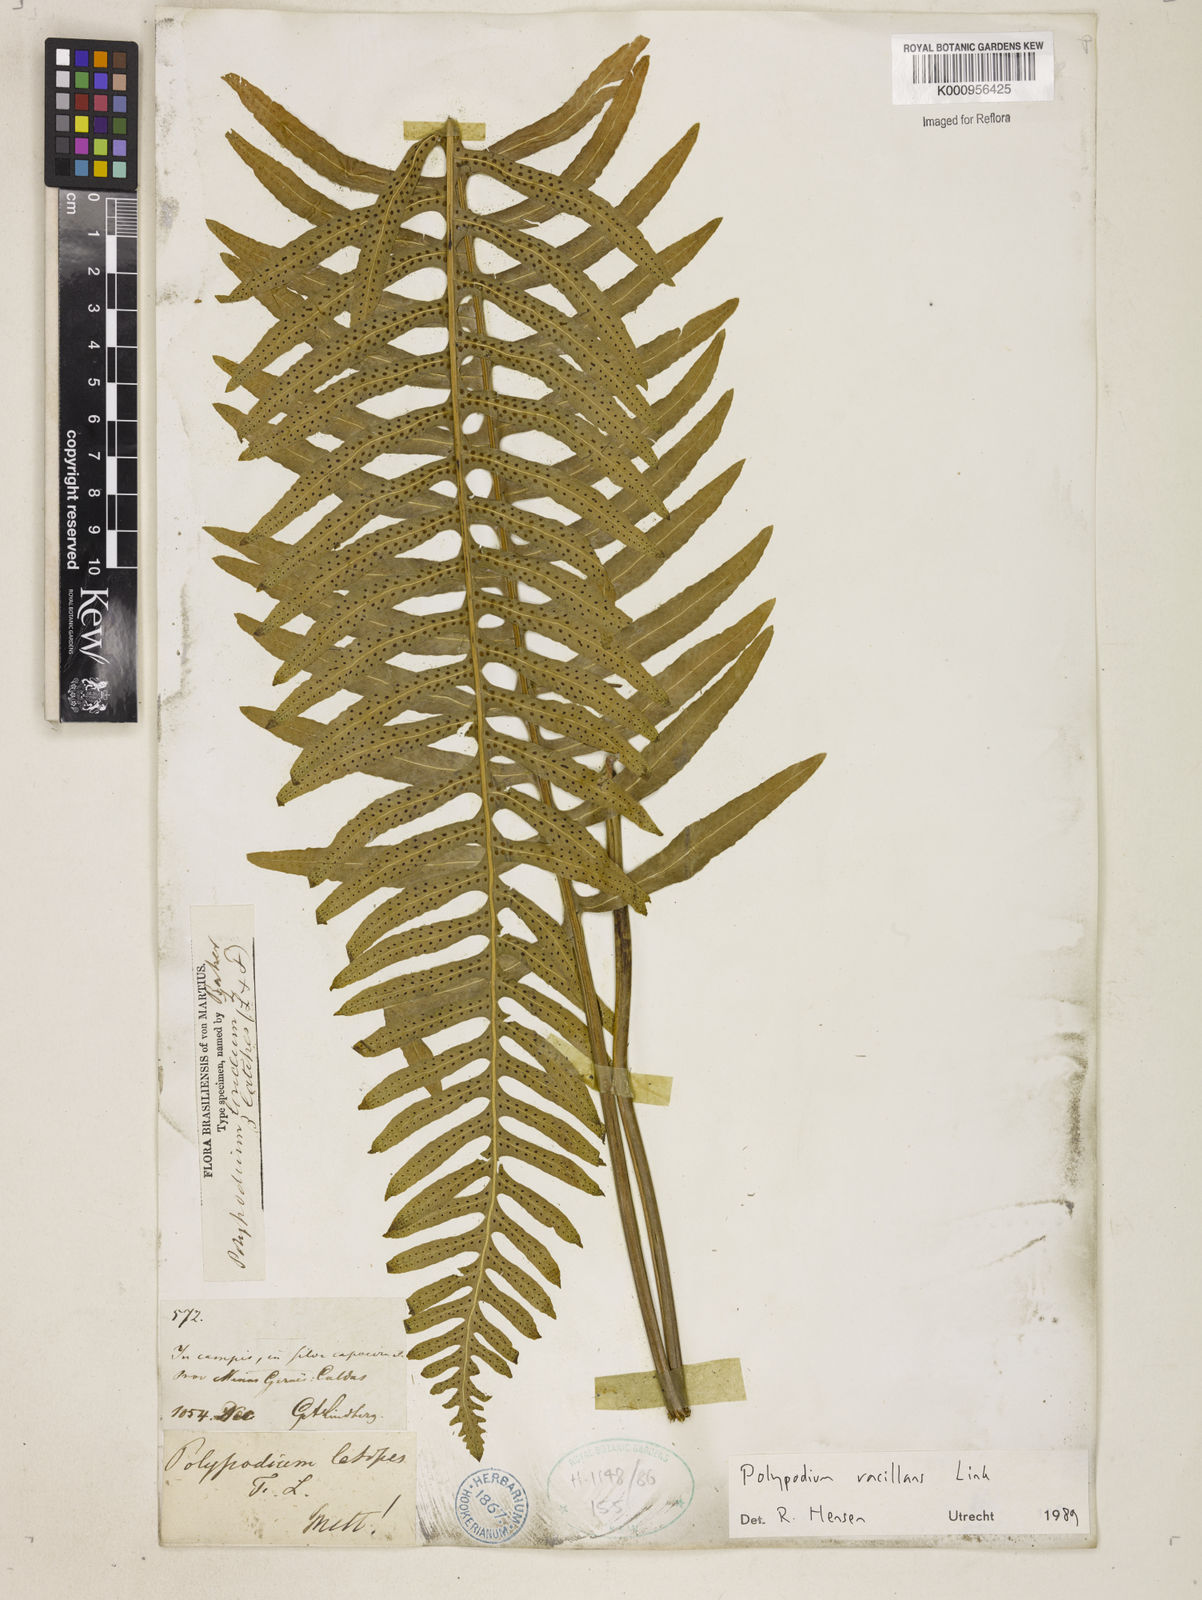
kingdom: Plantae
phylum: Tracheophyta
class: Polypodiopsida
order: Polypodiales
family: Polypodiaceae
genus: Serpocaulon
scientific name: Serpocaulon vacillans
